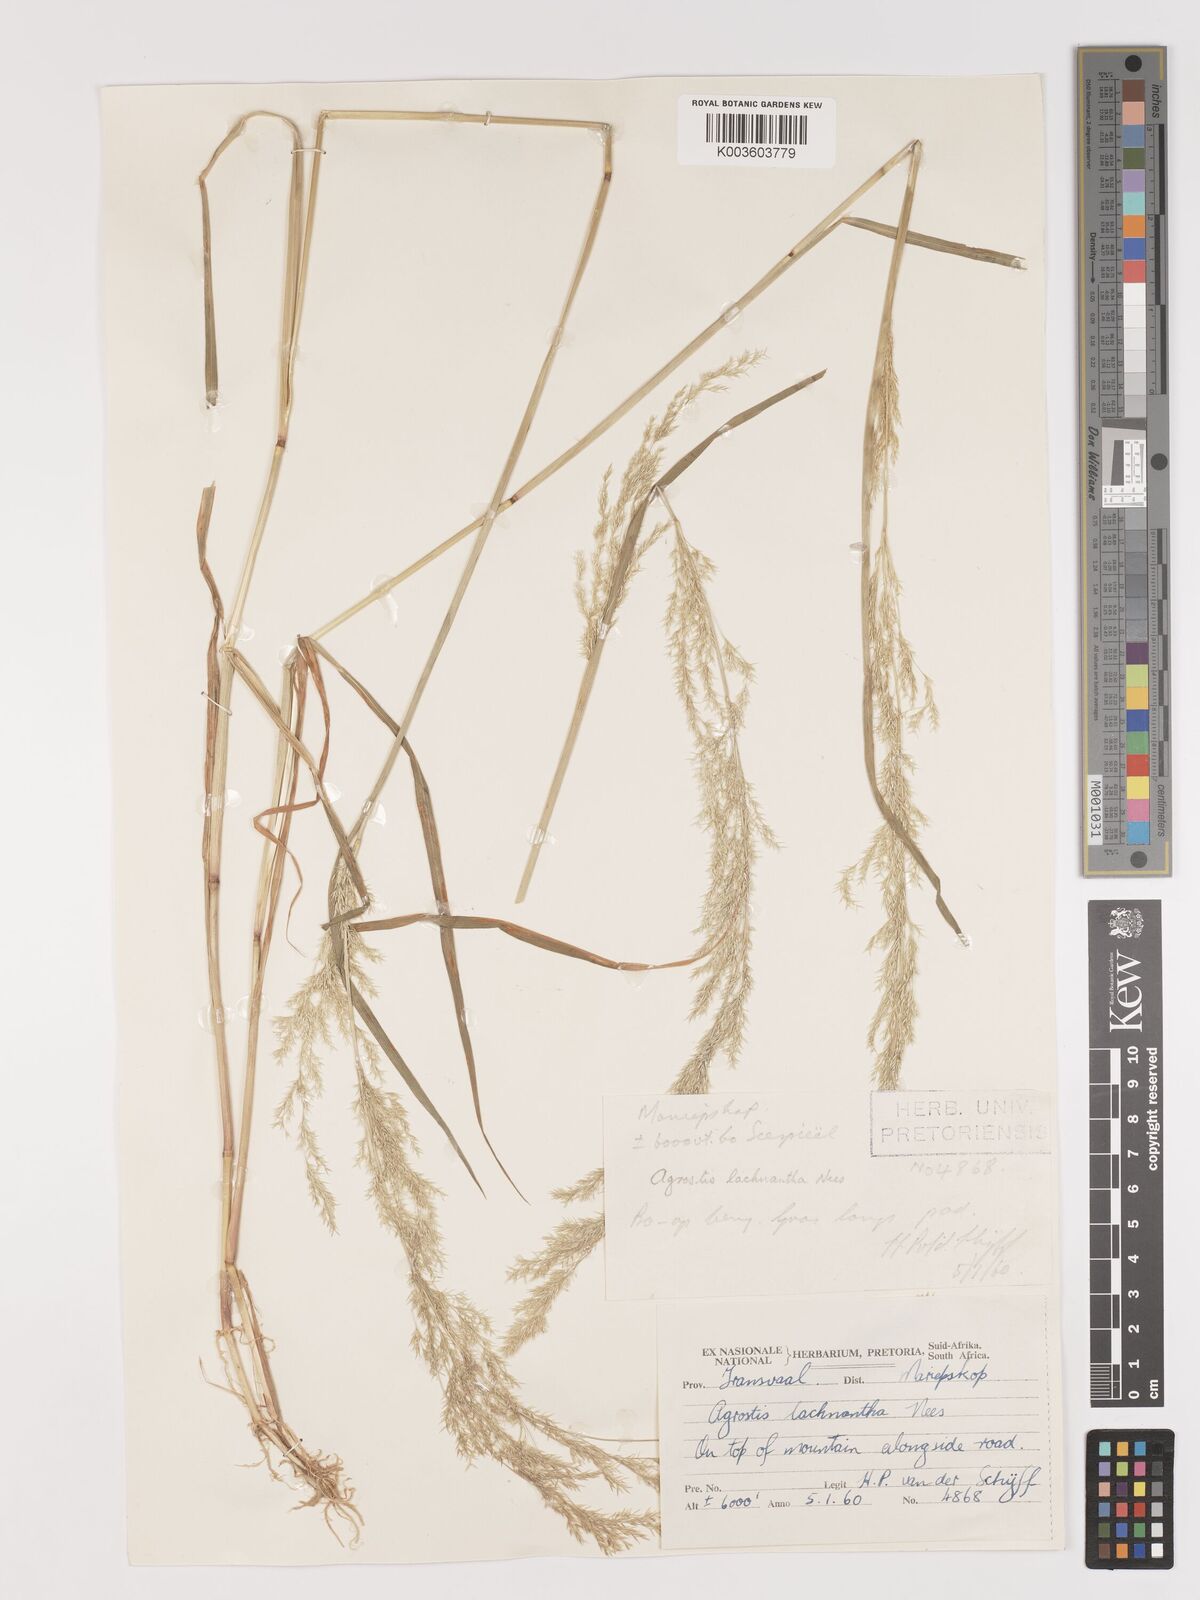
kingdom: Plantae
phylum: Tracheophyta
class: Liliopsida
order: Poales
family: Poaceae
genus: Lachnagrostis
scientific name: Lachnagrostis lachnantha
